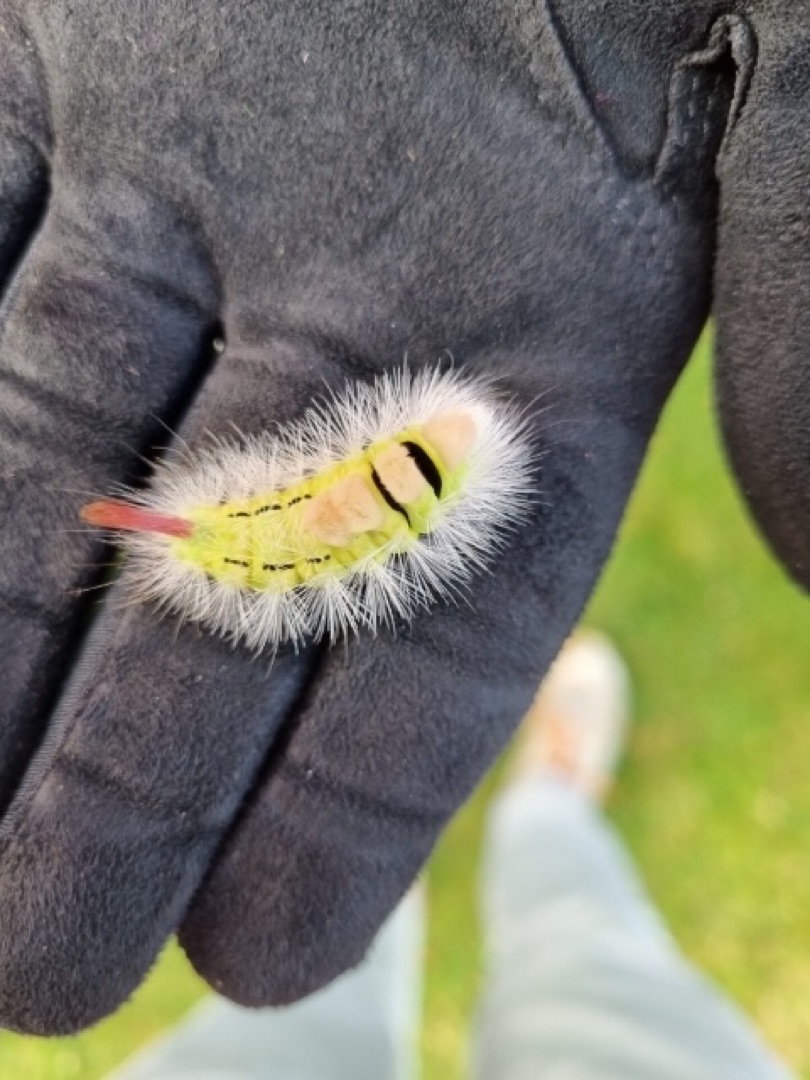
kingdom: Animalia
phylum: Arthropoda
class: Insecta
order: Lepidoptera
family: Erebidae
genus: Calliteara
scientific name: Calliteara pudibunda
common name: Bøgenonne
